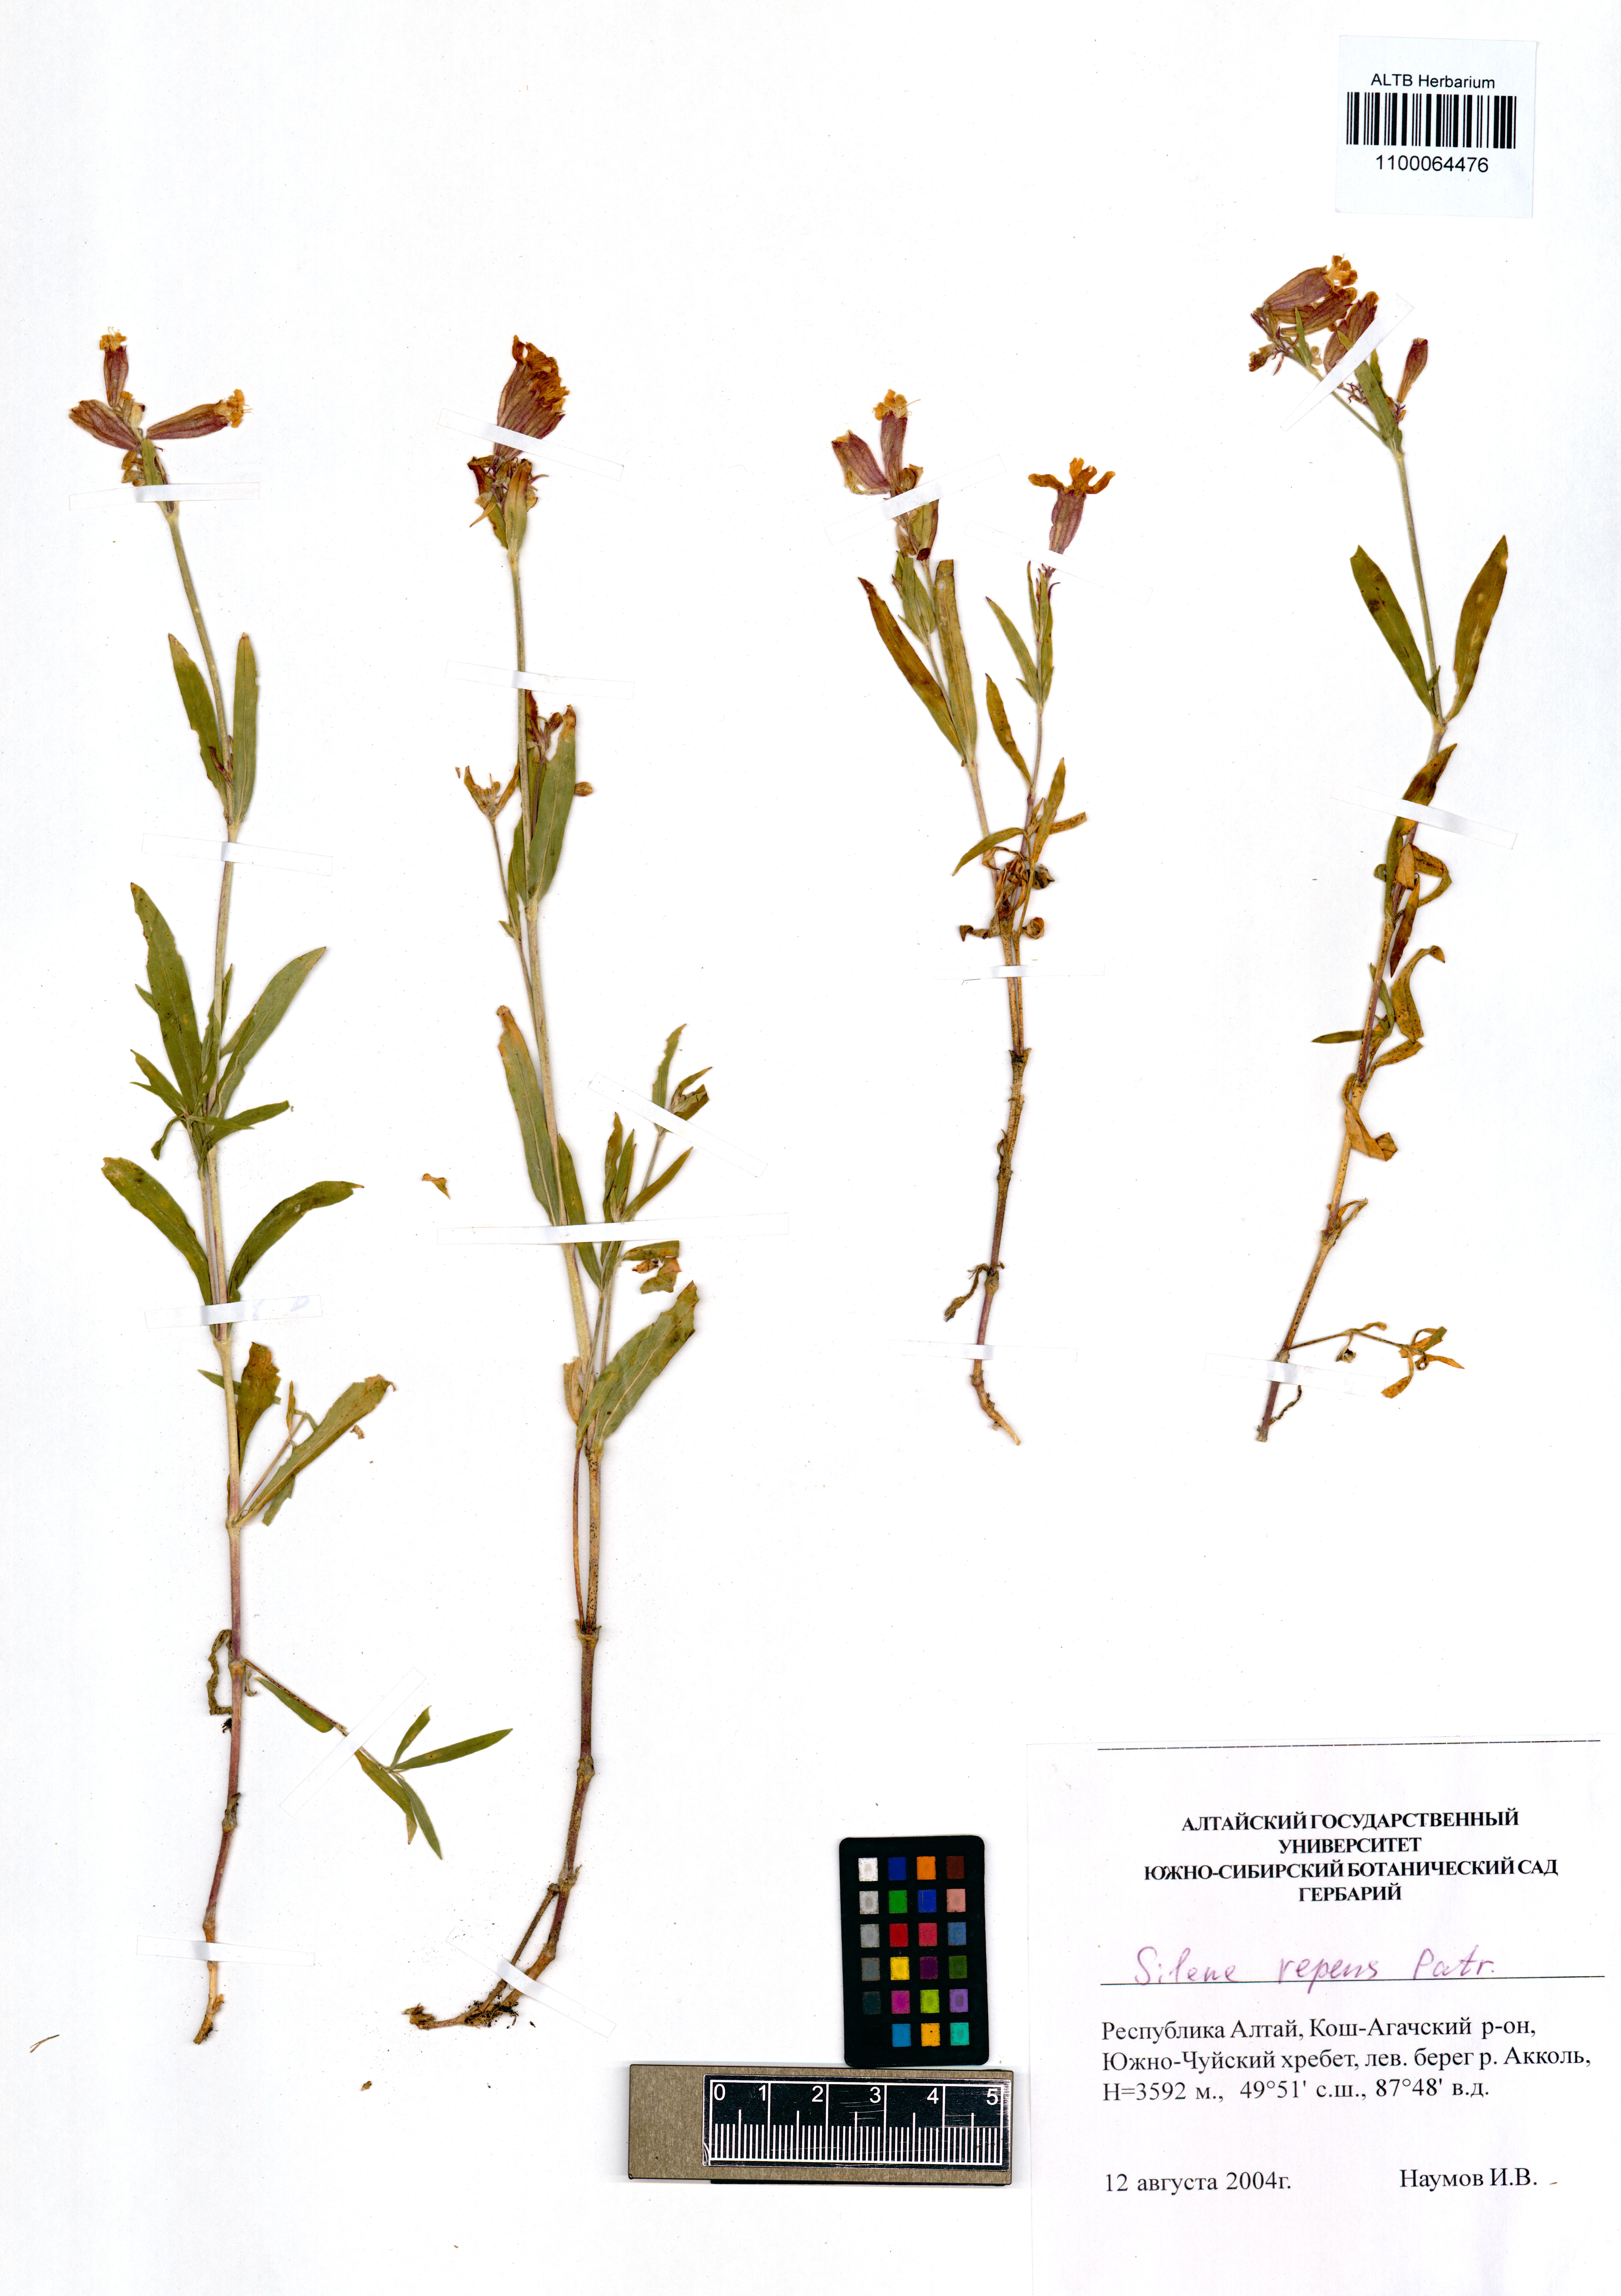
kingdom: Plantae
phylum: Tracheophyta
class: Magnoliopsida
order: Caryophyllales
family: Caryophyllaceae
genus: Silene
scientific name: Silene repens
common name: Pink campion
